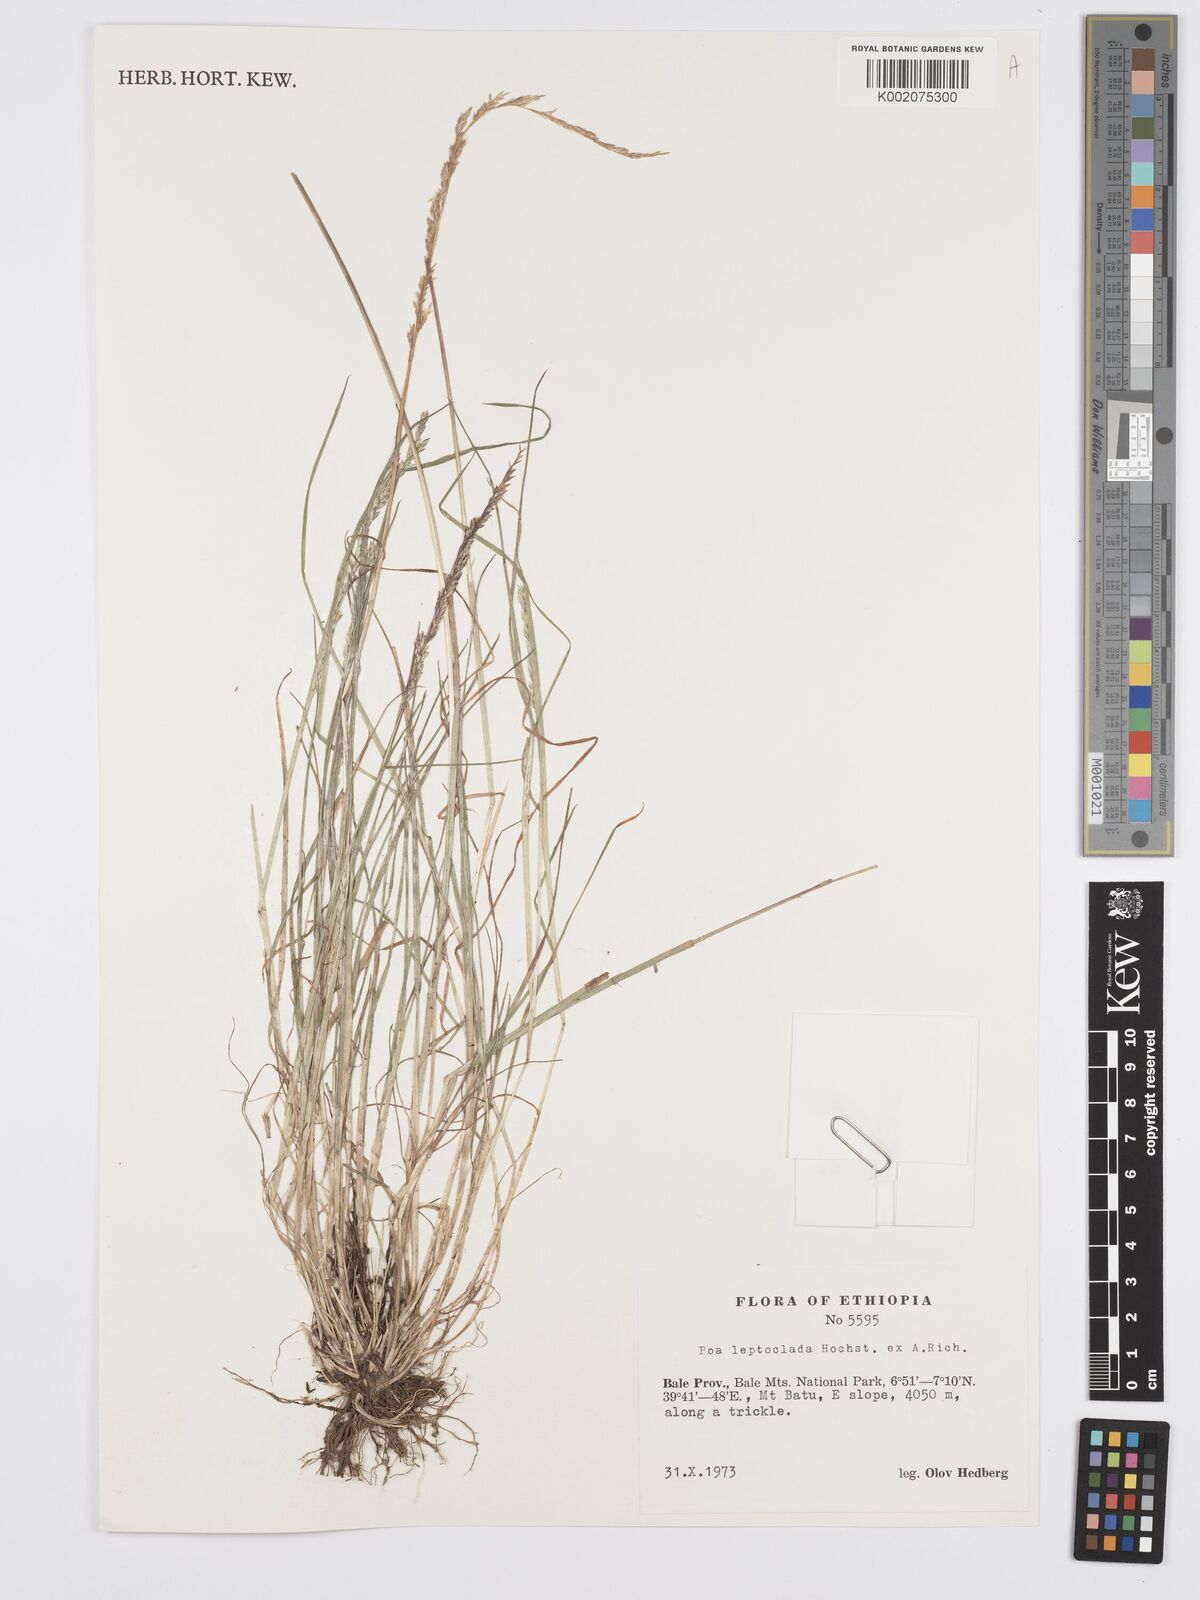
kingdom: Plantae
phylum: Tracheophyta
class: Liliopsida
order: Poales
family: Poaceae
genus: Poa
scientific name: Poa leptoclada
